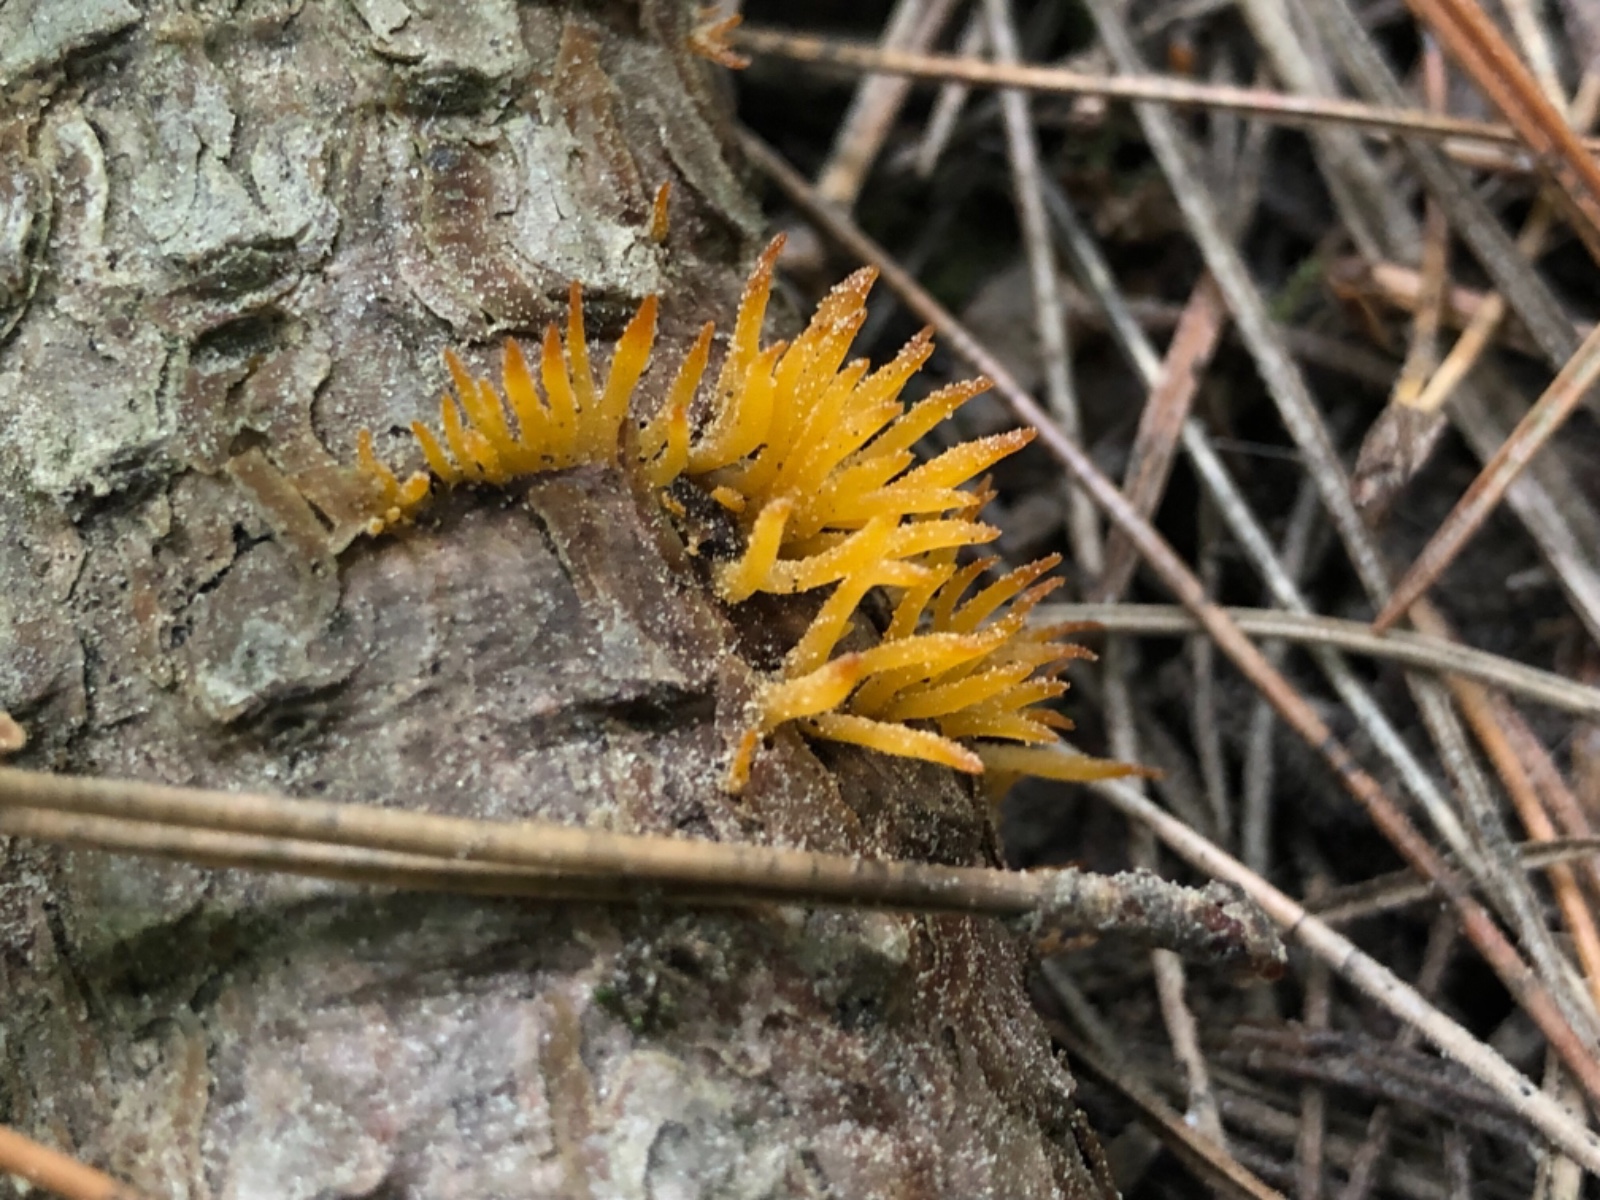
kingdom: Fungi
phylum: Basidiomycota
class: Dacrymycetes
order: Dacrymycetales
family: Dacrymycetaceae
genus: Calocera
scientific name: Calocera furcata
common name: fyrre-guldgaffel
